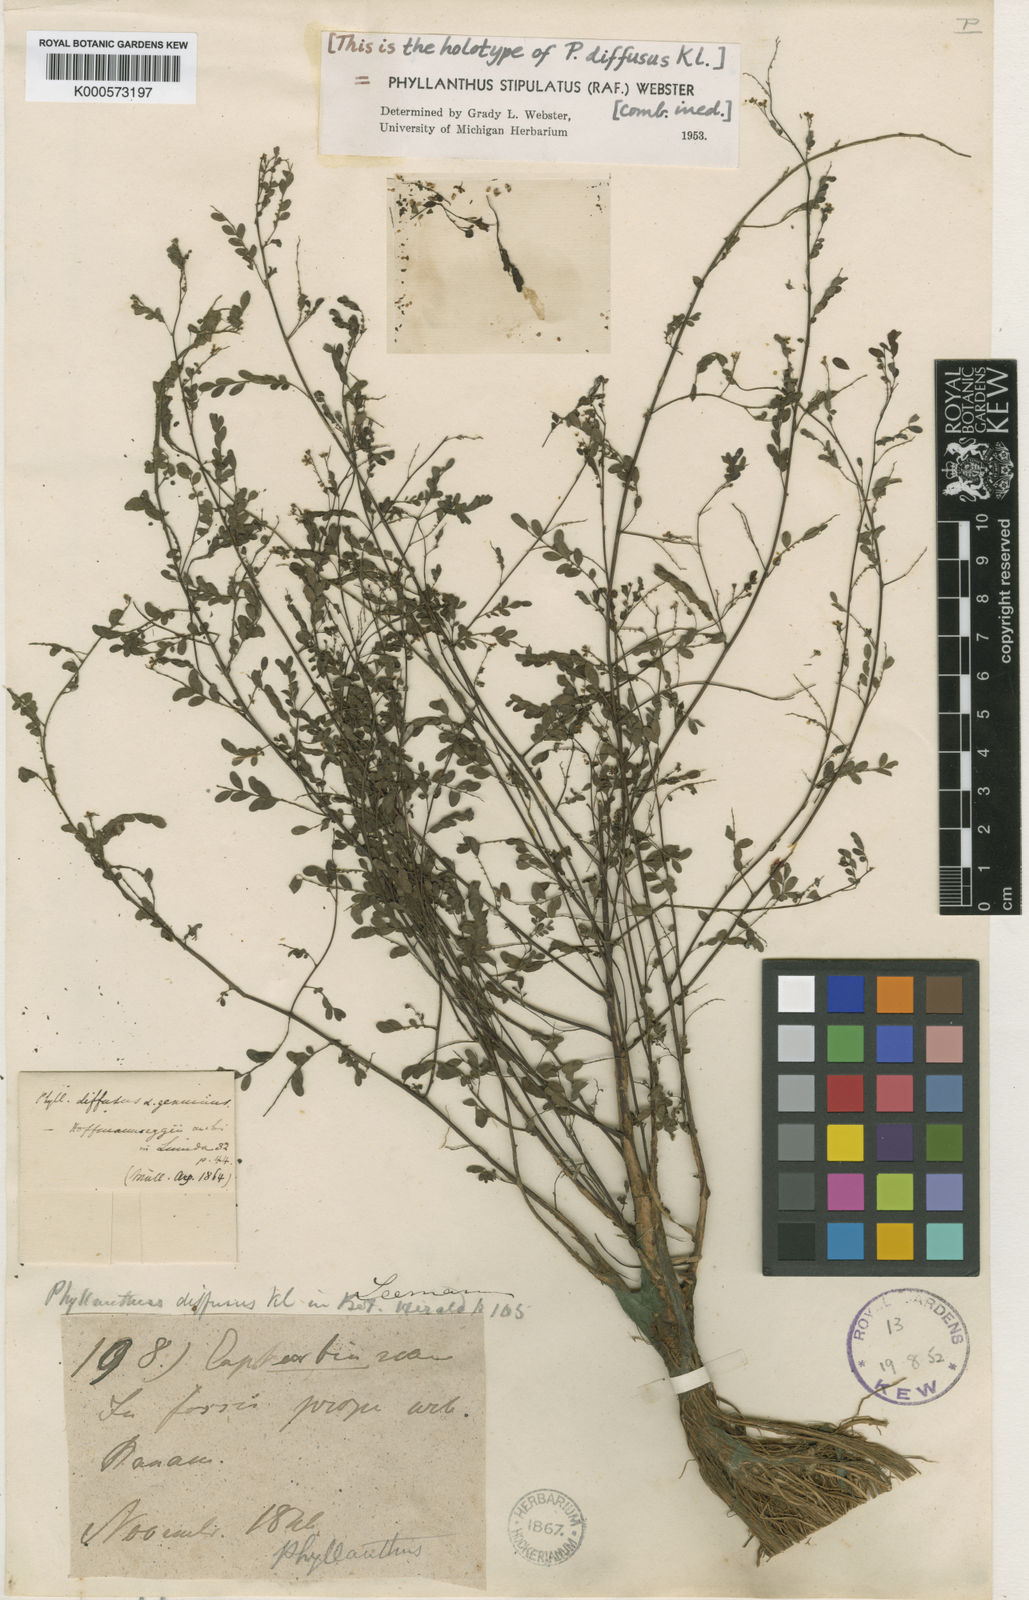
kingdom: Plantae
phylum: Tracheophyta
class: Magnoliopsida
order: Malpighiales
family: Phyllanthaceae
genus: Phyllanthus
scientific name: Phyllanthus stipulatus
